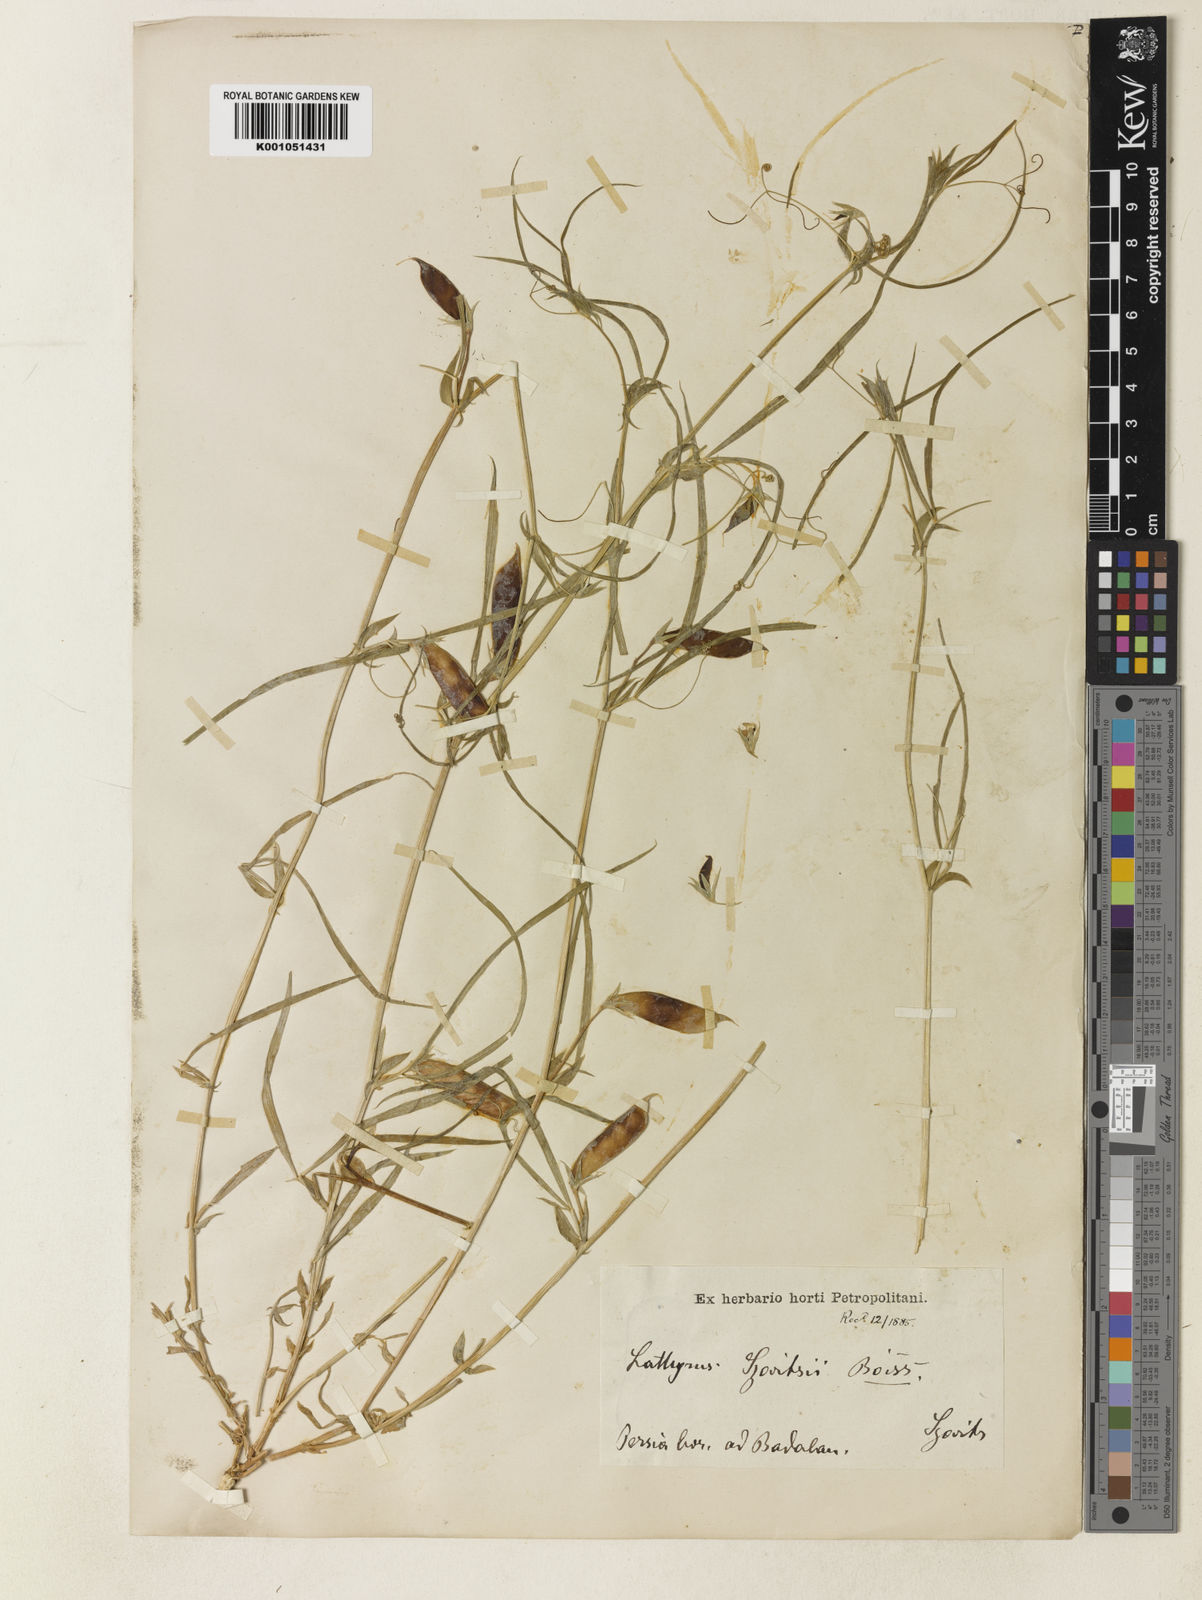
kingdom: Plantae
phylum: Tracheophyta
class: Magnoliopsida
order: Fabales
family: Fabaceae
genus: Lathyrus
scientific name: Lathyrus cicera
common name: Red vetchling
